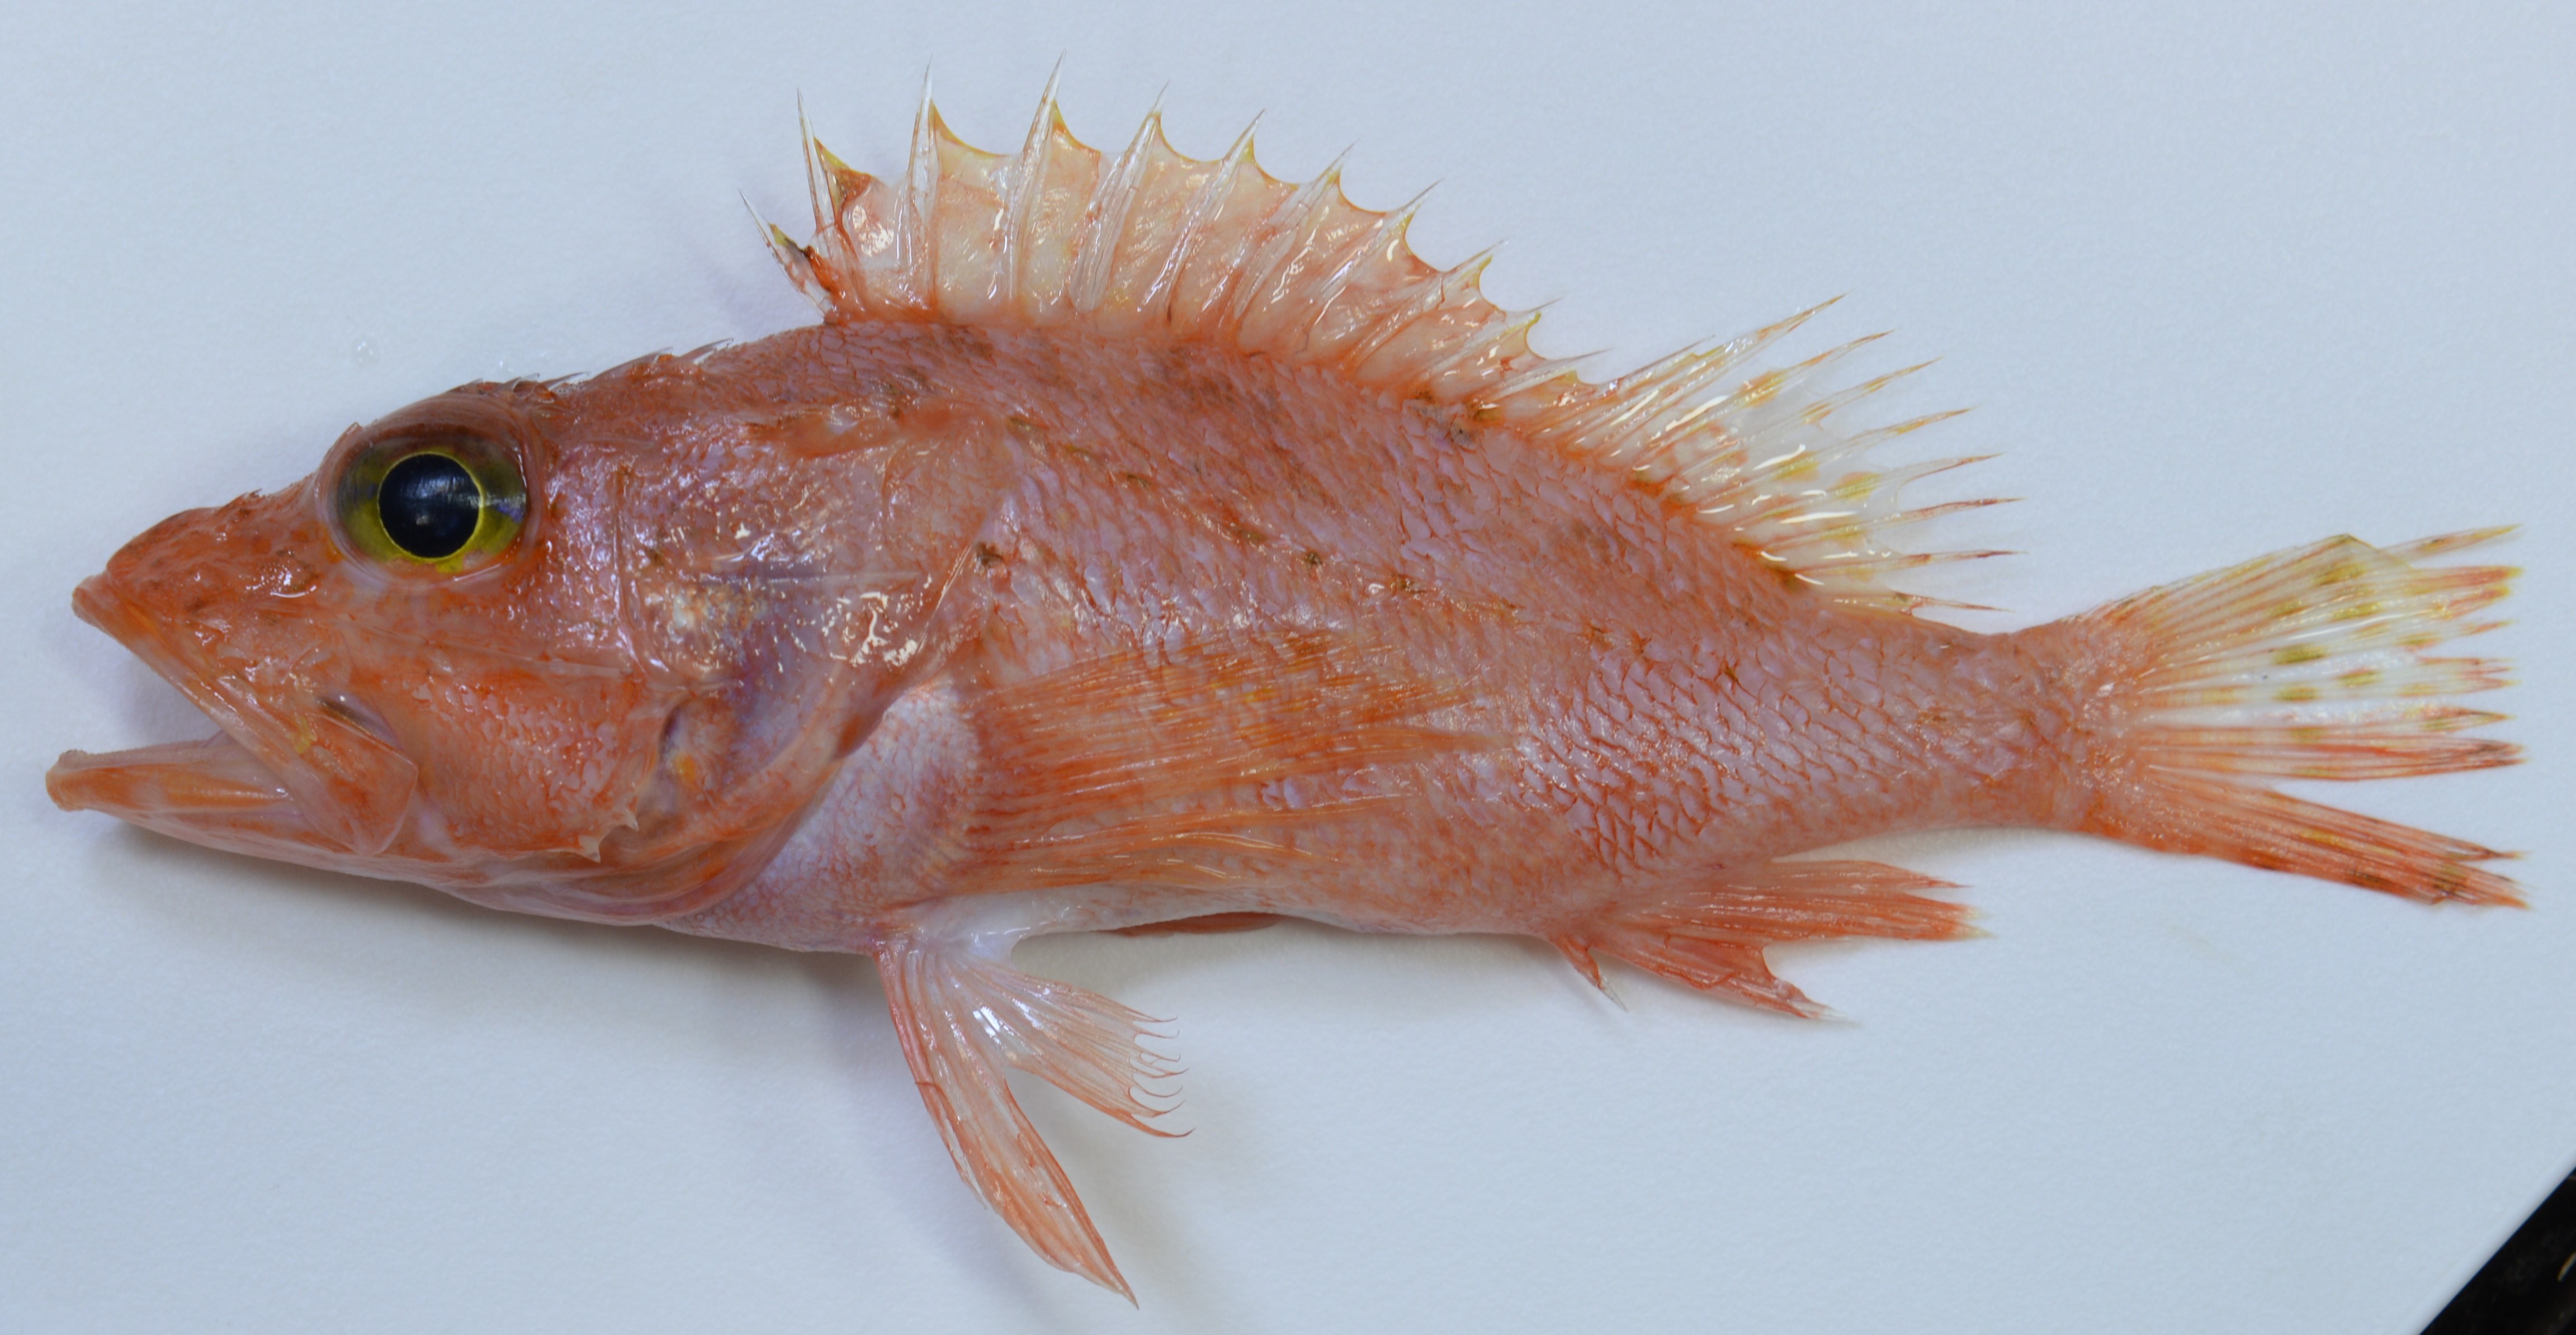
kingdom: Animalia
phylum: Chordata
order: Scorpaeniformes
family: Scorpaenidae
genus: Pontinus
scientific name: Pontinus nigerimum
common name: Blacklash scorpionfish
